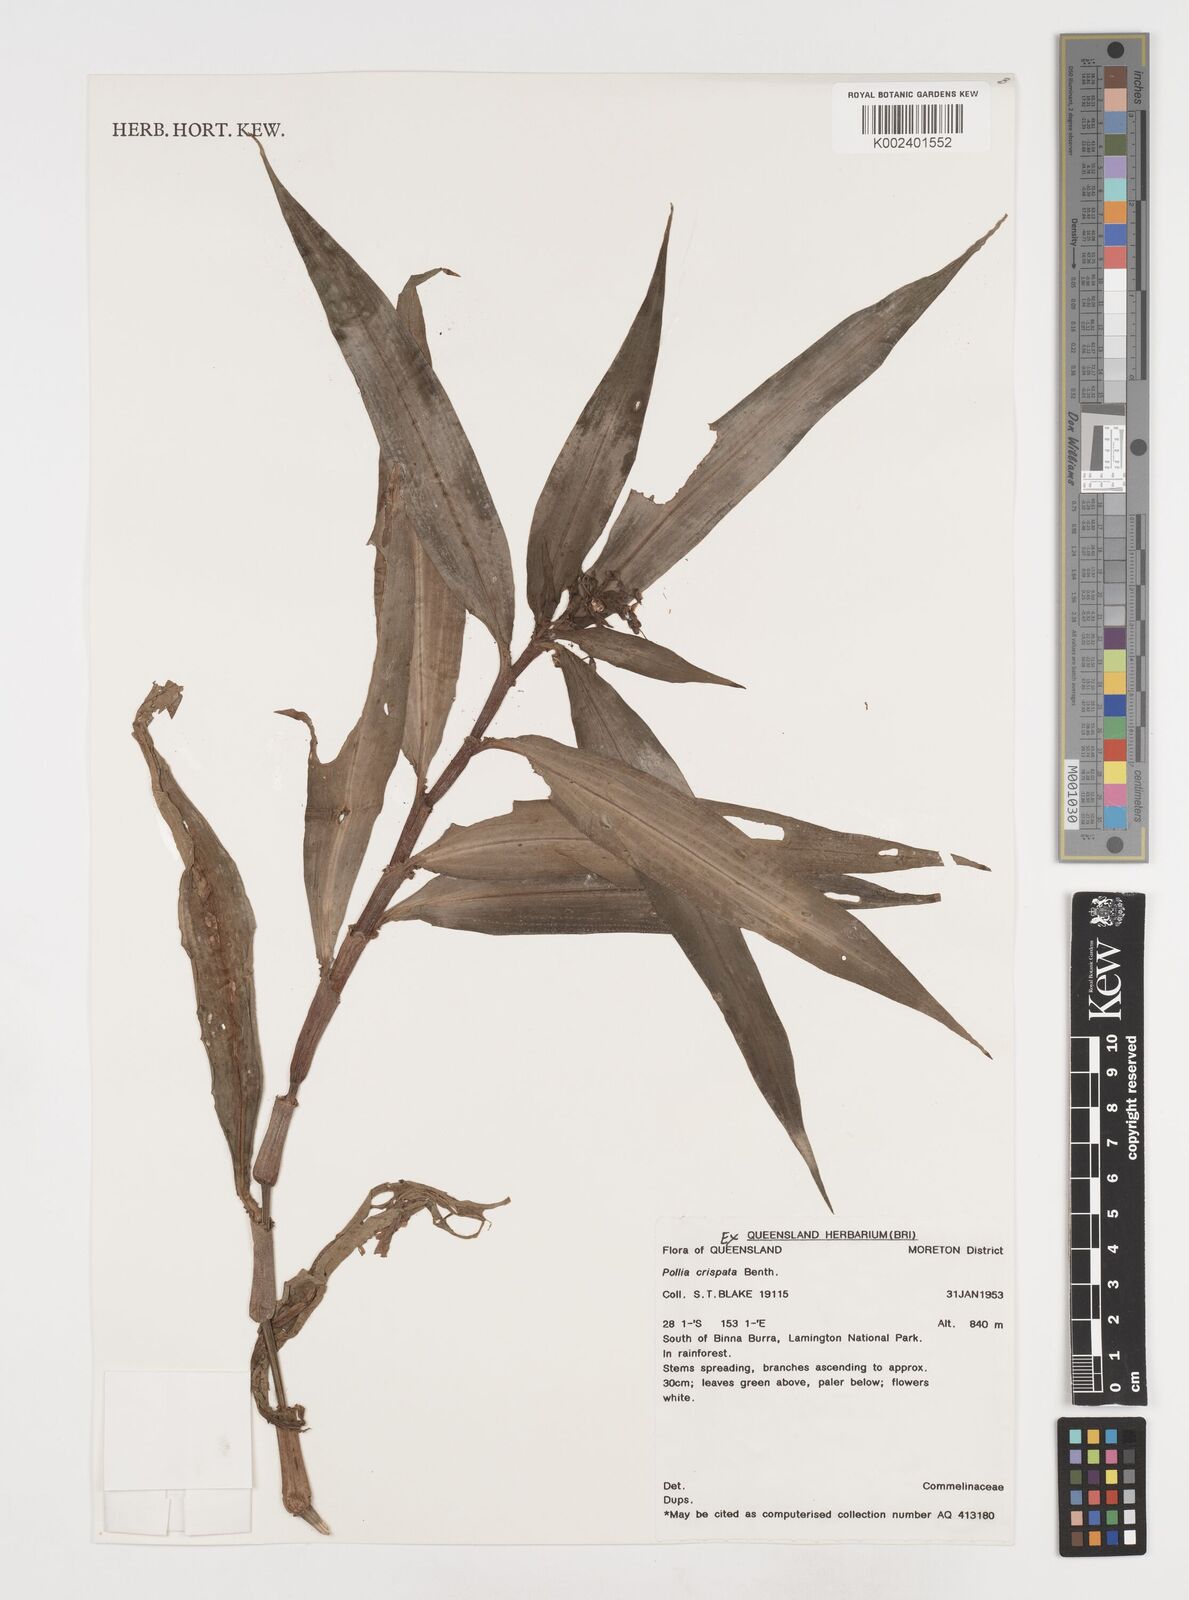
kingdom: Plantae
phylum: Tracheophyta
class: Liliopsida
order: Commelinales
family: Commelinaceae
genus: Pollia
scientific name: Pollia crispata
